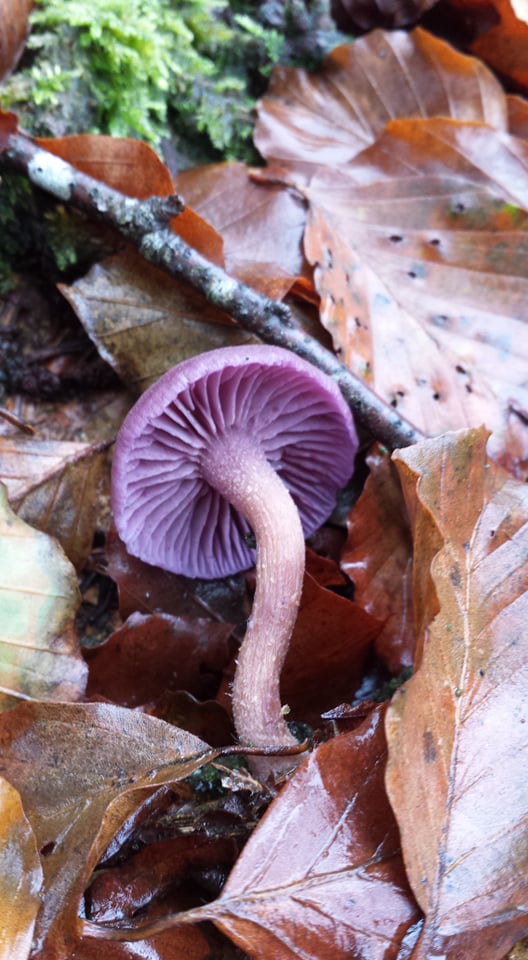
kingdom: Fungi
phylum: Basidiomycota
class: Agaricomycetes
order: Agaricales
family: Hydnangiaceae
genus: Laccaria
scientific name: Laccaria amethystina
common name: violet ametysthat
